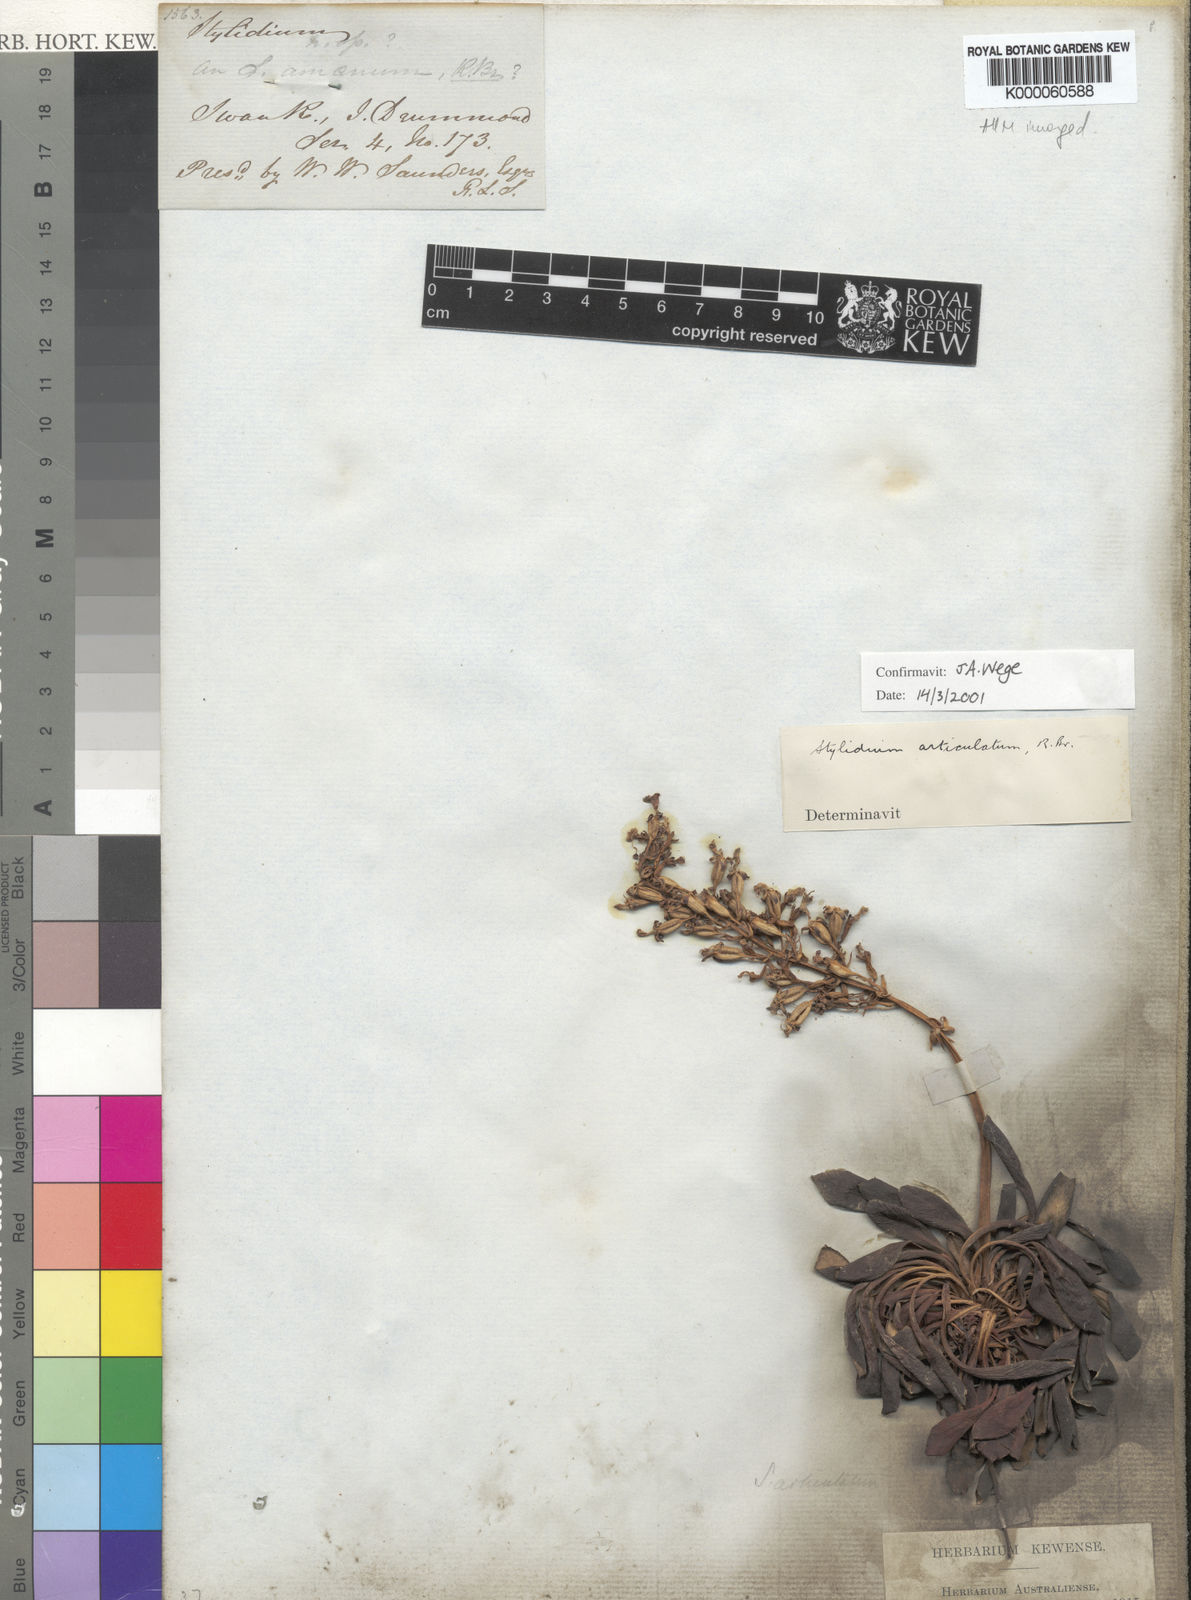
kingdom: Plantae
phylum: Tracheophyta
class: Magnoliopsida
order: Asterales
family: Stylidiaceae
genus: Stylidium
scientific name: Stylidium articulatum
